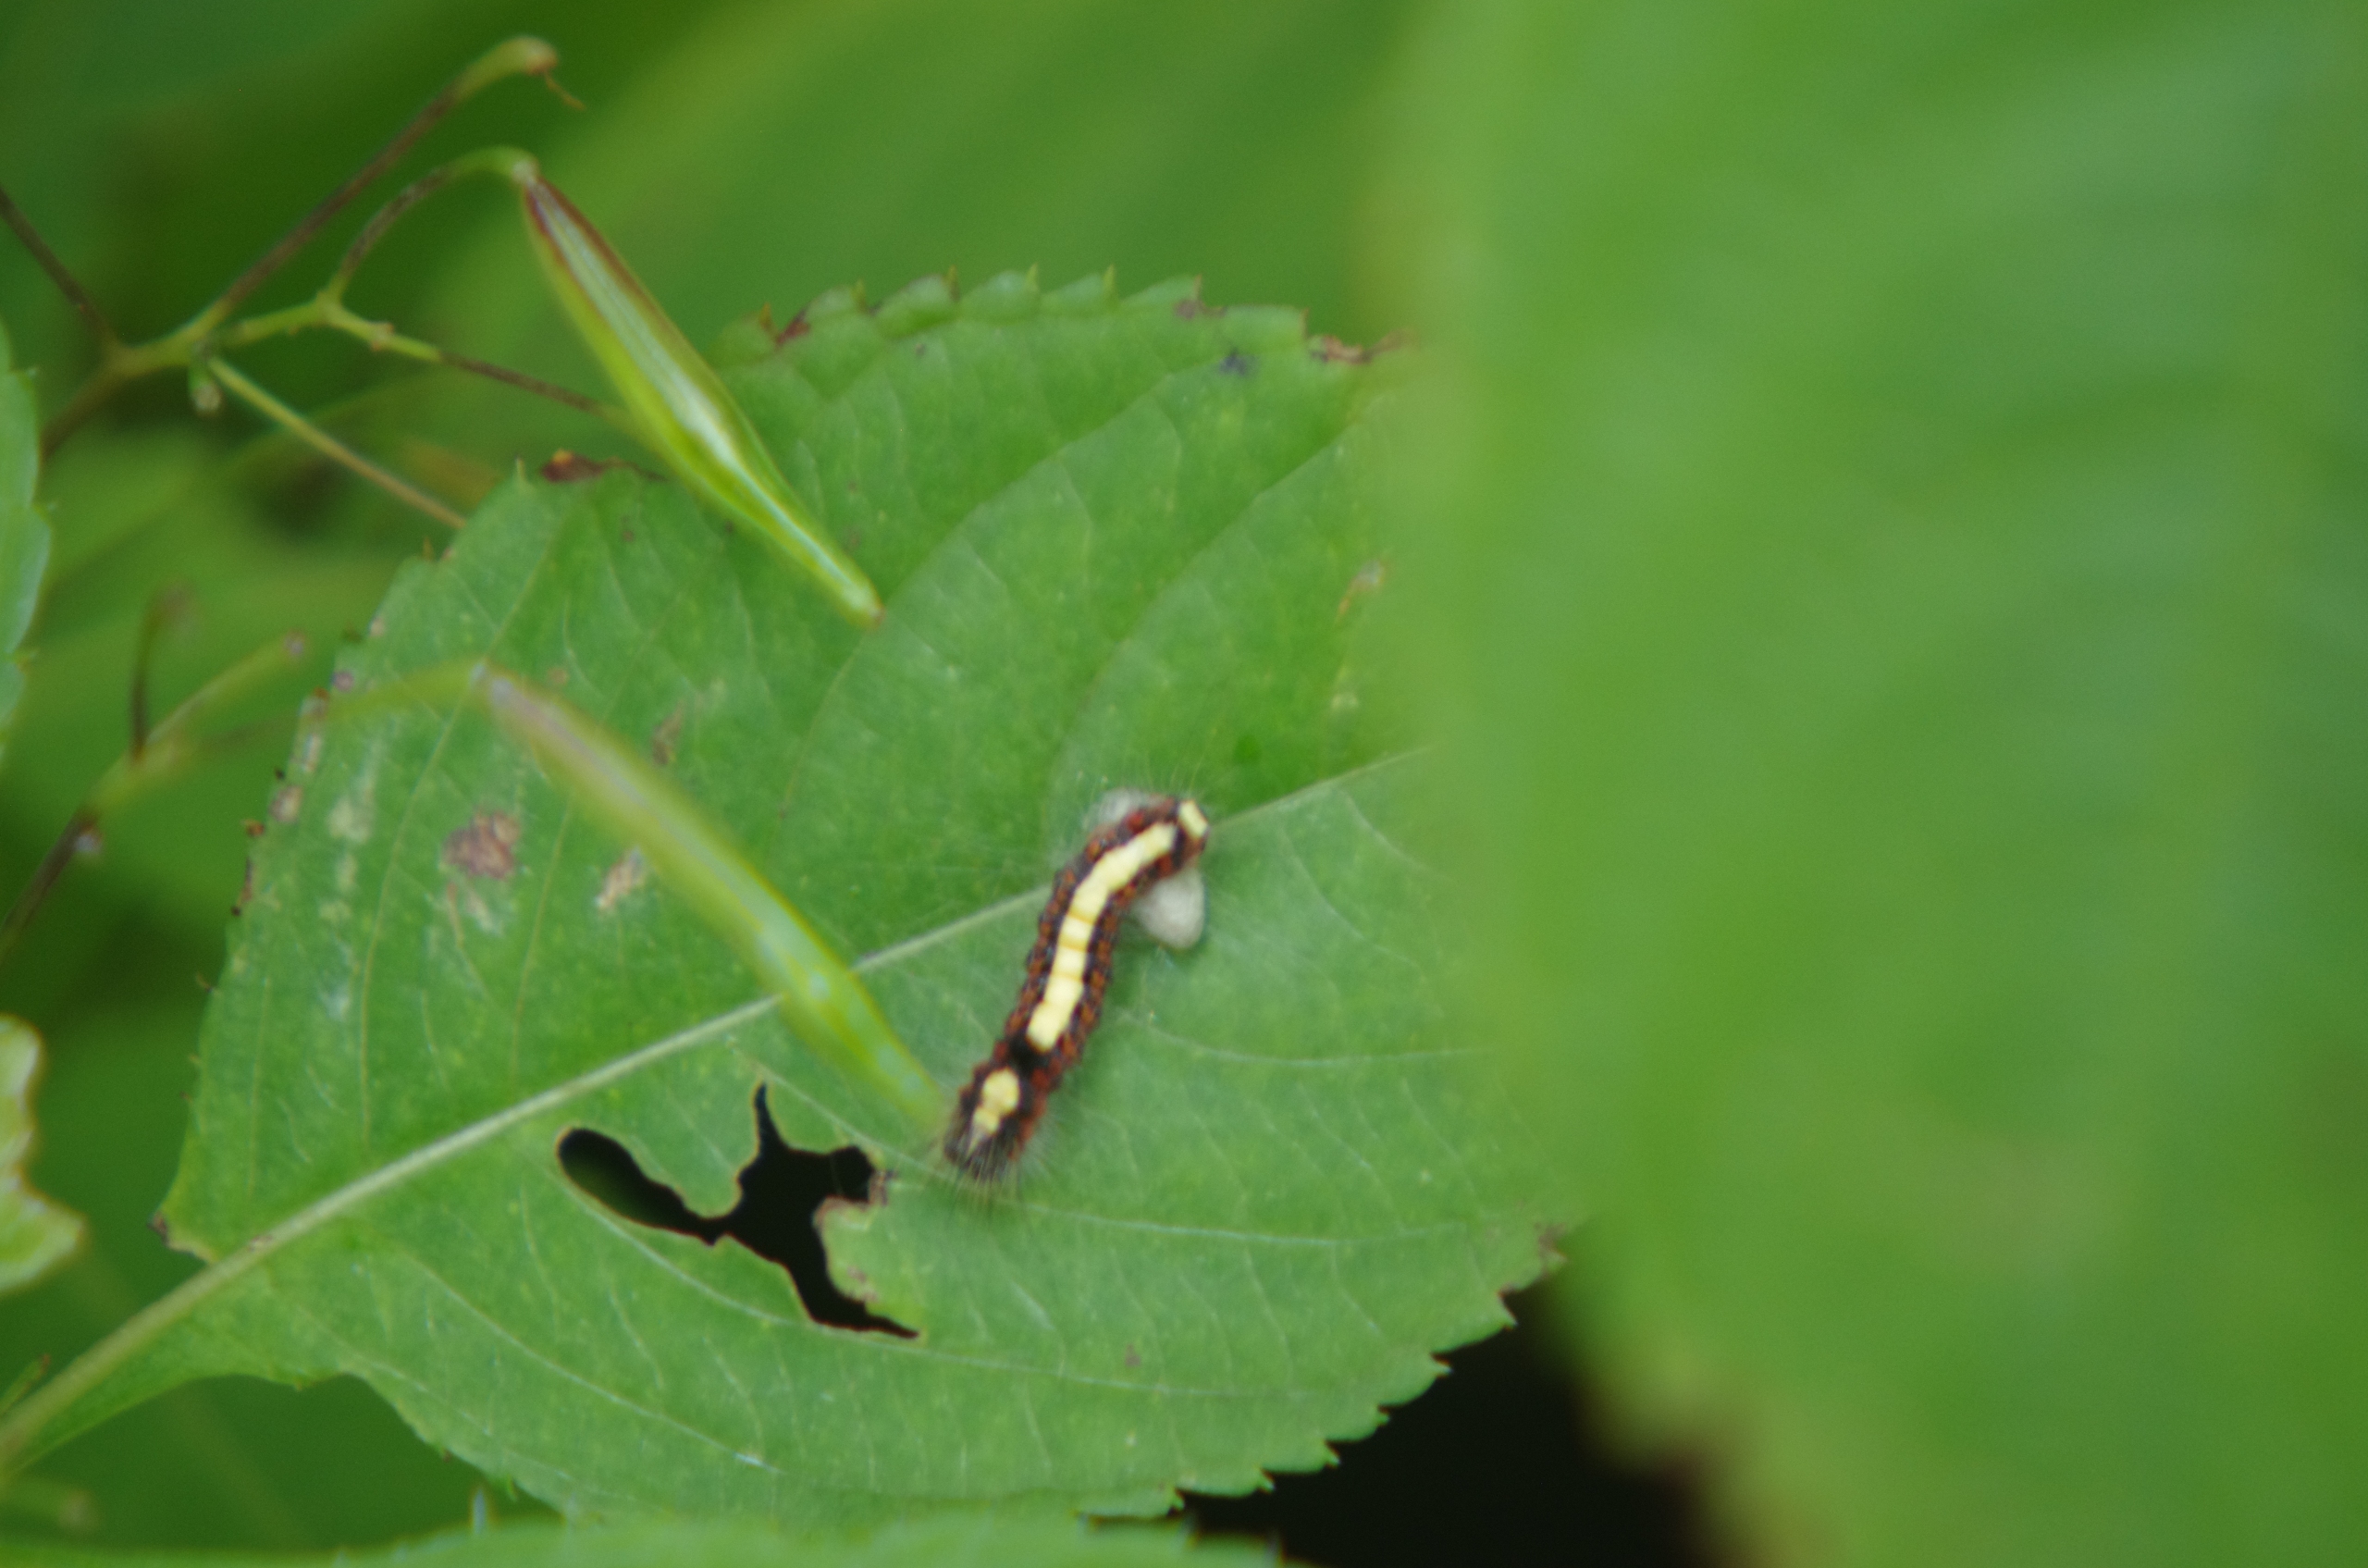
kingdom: Animalia
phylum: Arthropoda
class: Insecta
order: Lepidoptera
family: Noctuidae
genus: Acronicta
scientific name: Acronicta psi
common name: Psi-ugle
